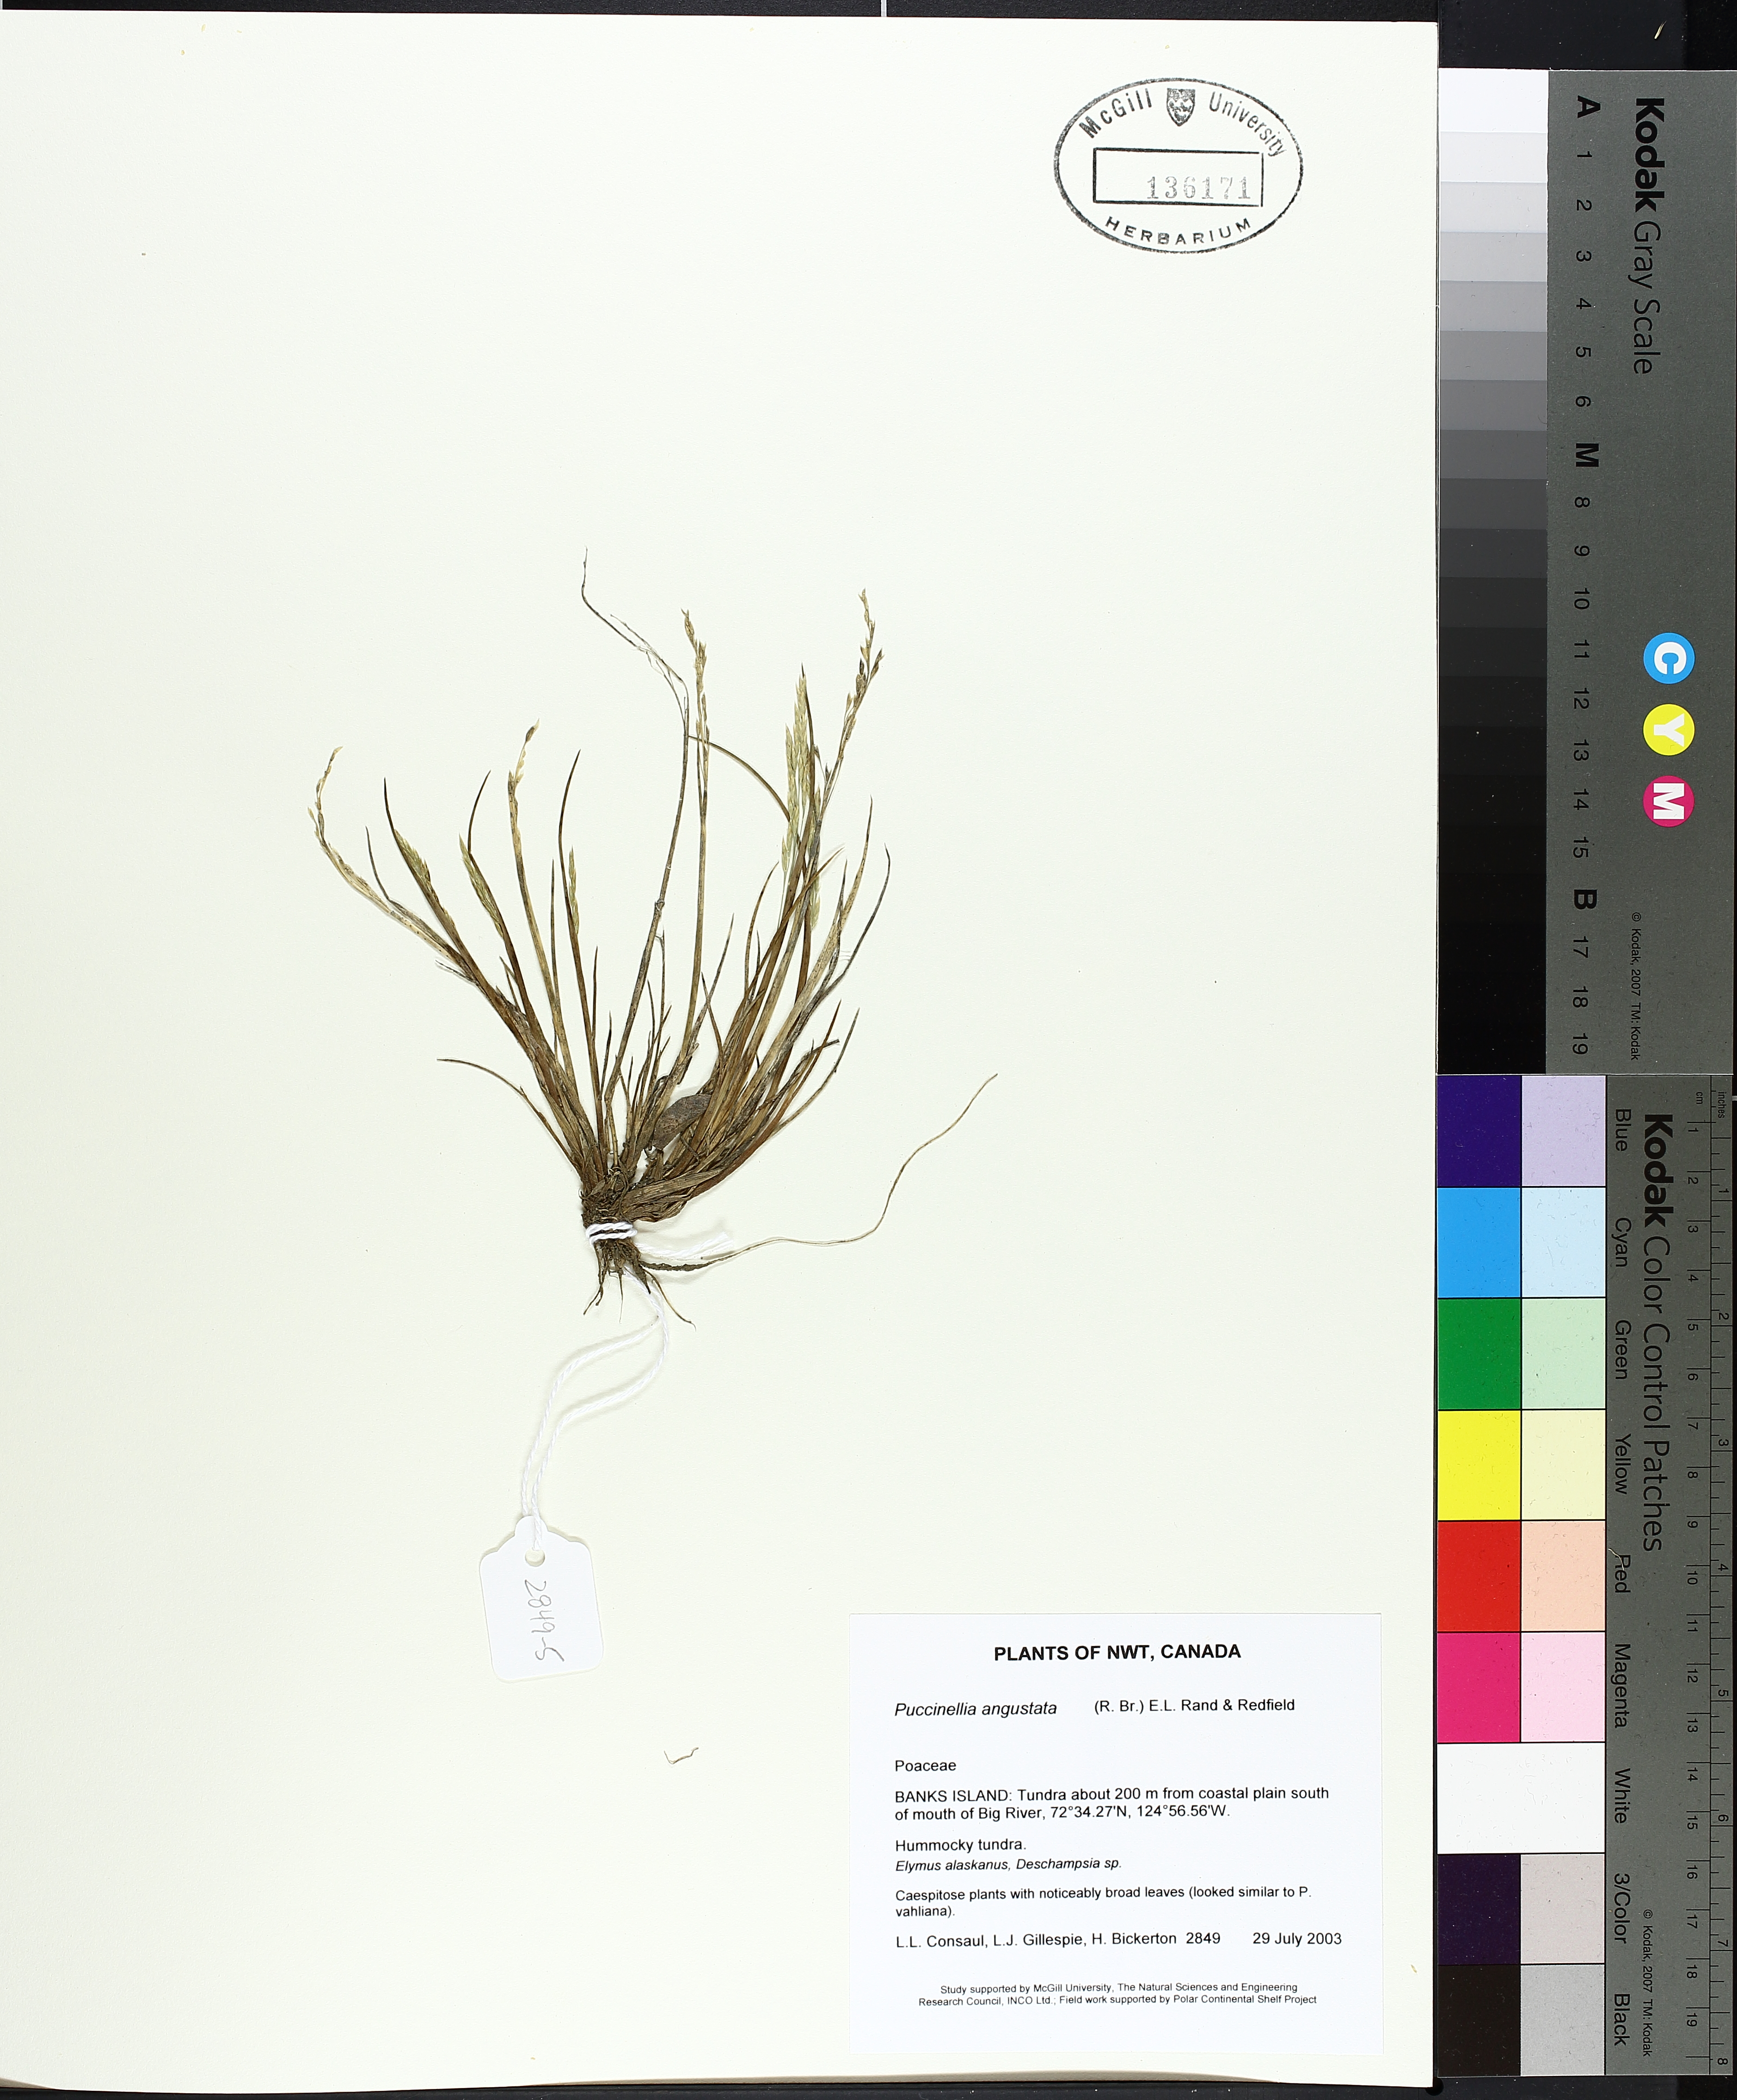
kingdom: Plantae
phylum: Tracheophyta
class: Liliopsida
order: Poales
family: Poaceae
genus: Puccinellia
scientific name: Puccinellia angustata
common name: Narrow alkaligrass
